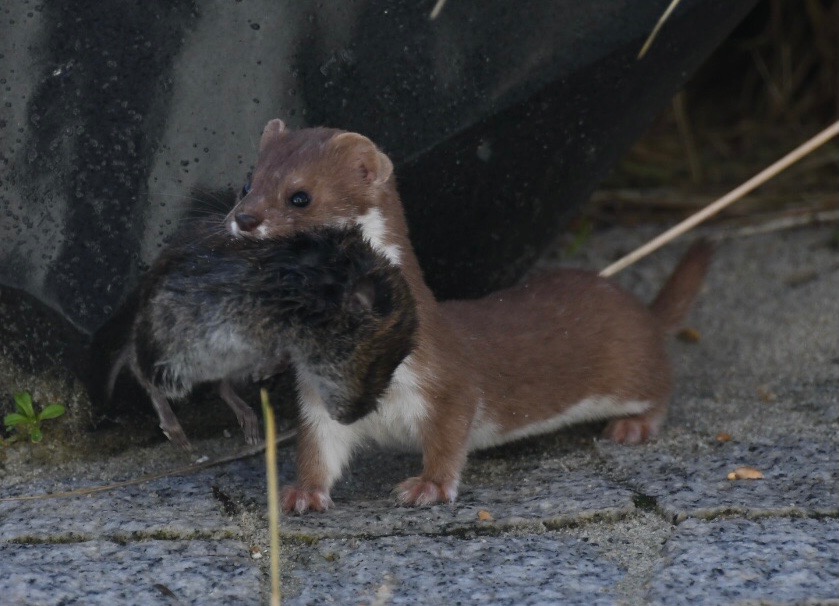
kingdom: Animalia
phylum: Chordata
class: Mammalia
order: Carnivora
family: Mustelidae
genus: Mustela
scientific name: Mustela nivalis
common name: Brud
